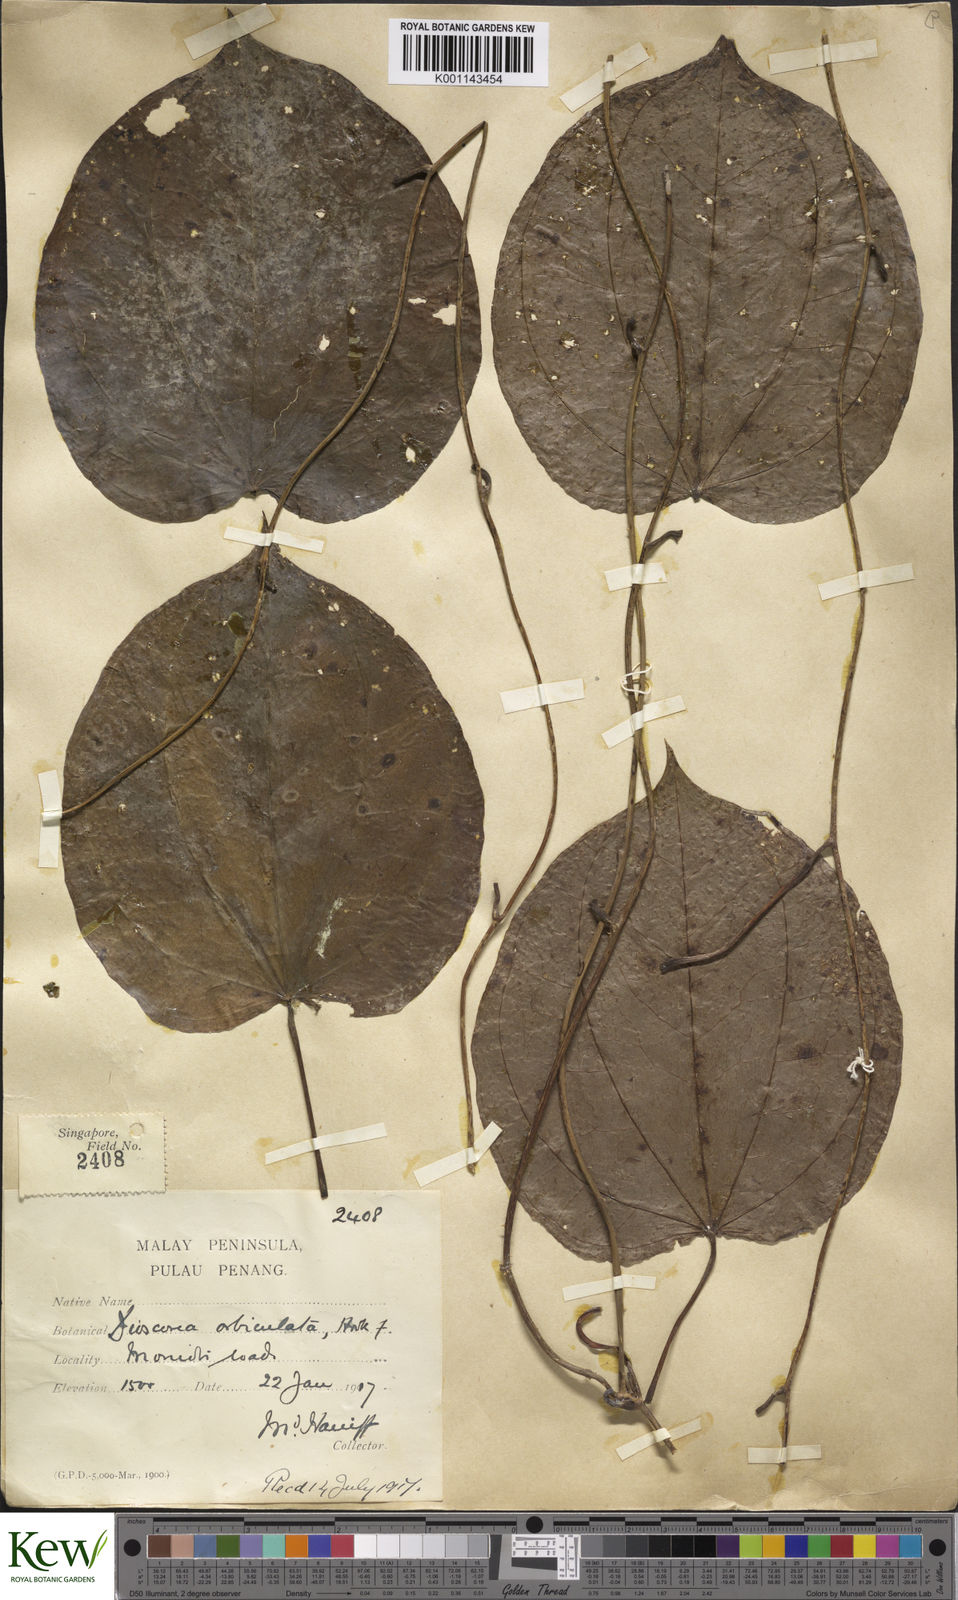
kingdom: Plantae
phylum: Tracheophyta
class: Liliopsida
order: Dioscoreales
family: Dioscoreaceae
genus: Dioscorea
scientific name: Dioscorea orbiculata
